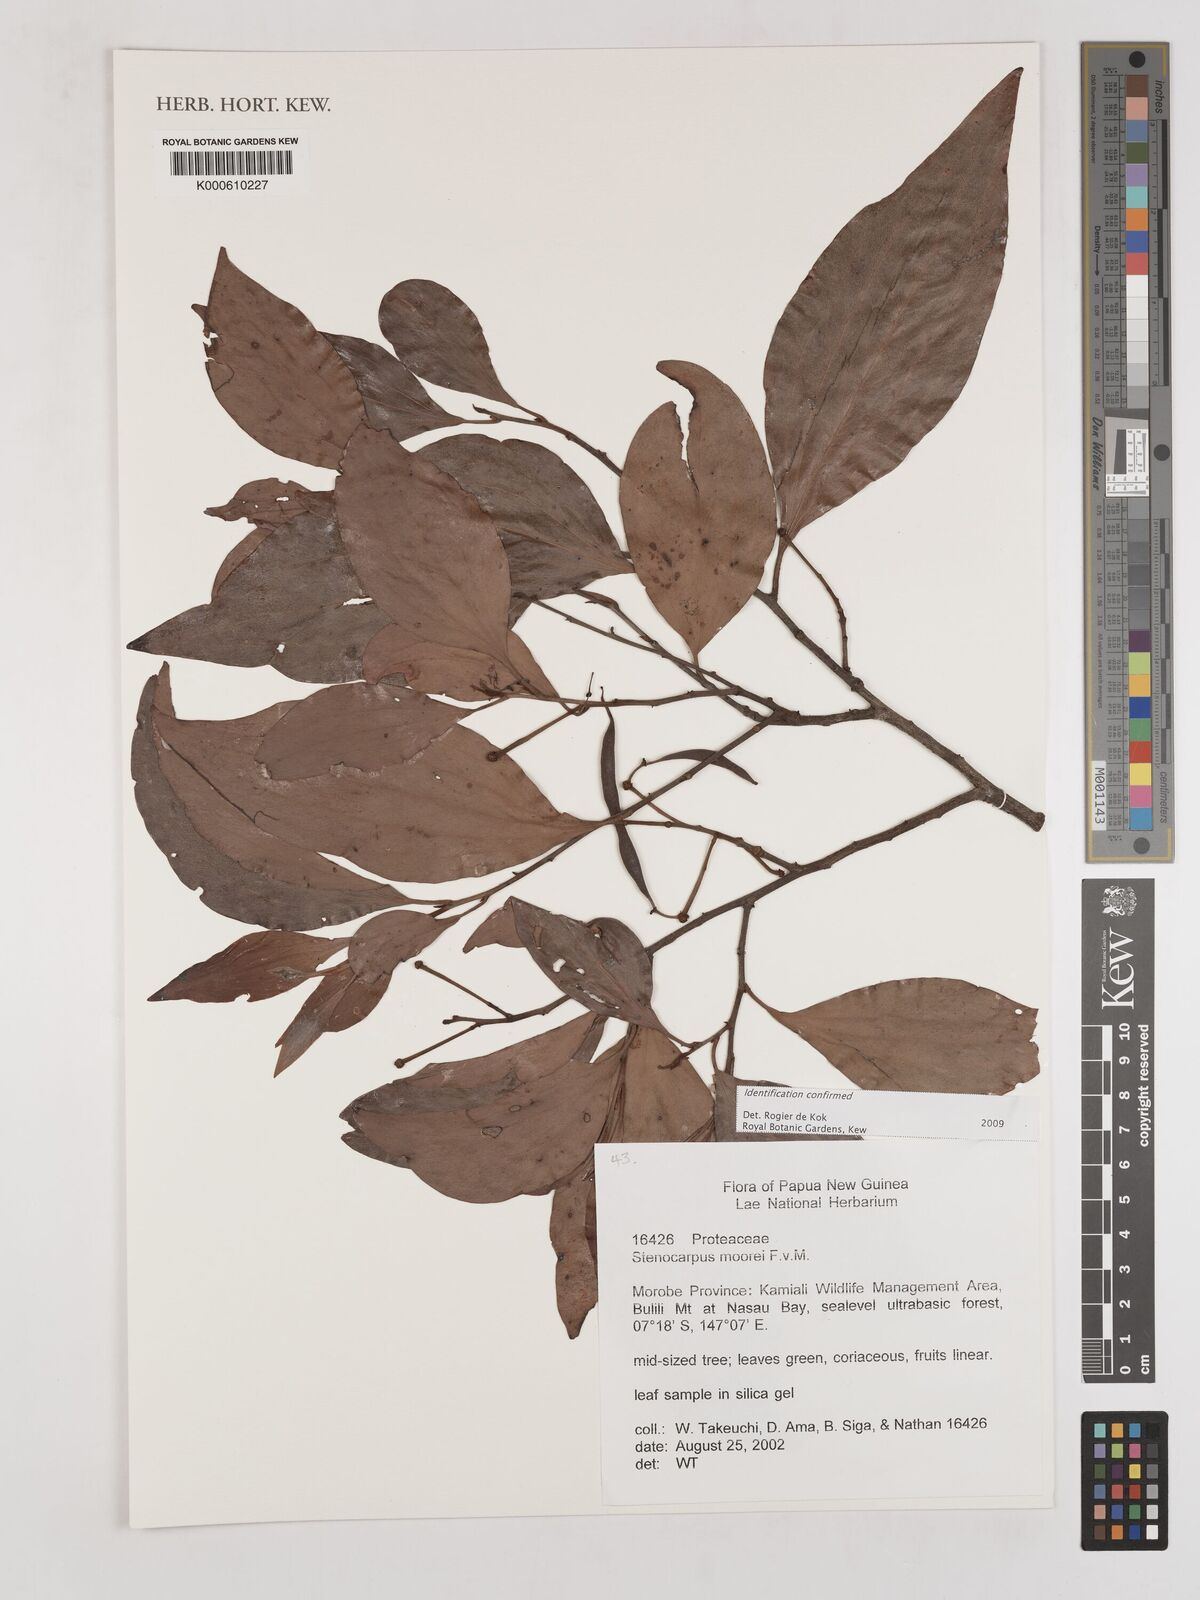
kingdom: Plantae
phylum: Tracheophyta
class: Magnoliopsida
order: Proteales
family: Proteaceae
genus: Stenocarpus
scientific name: Stenocarpus
